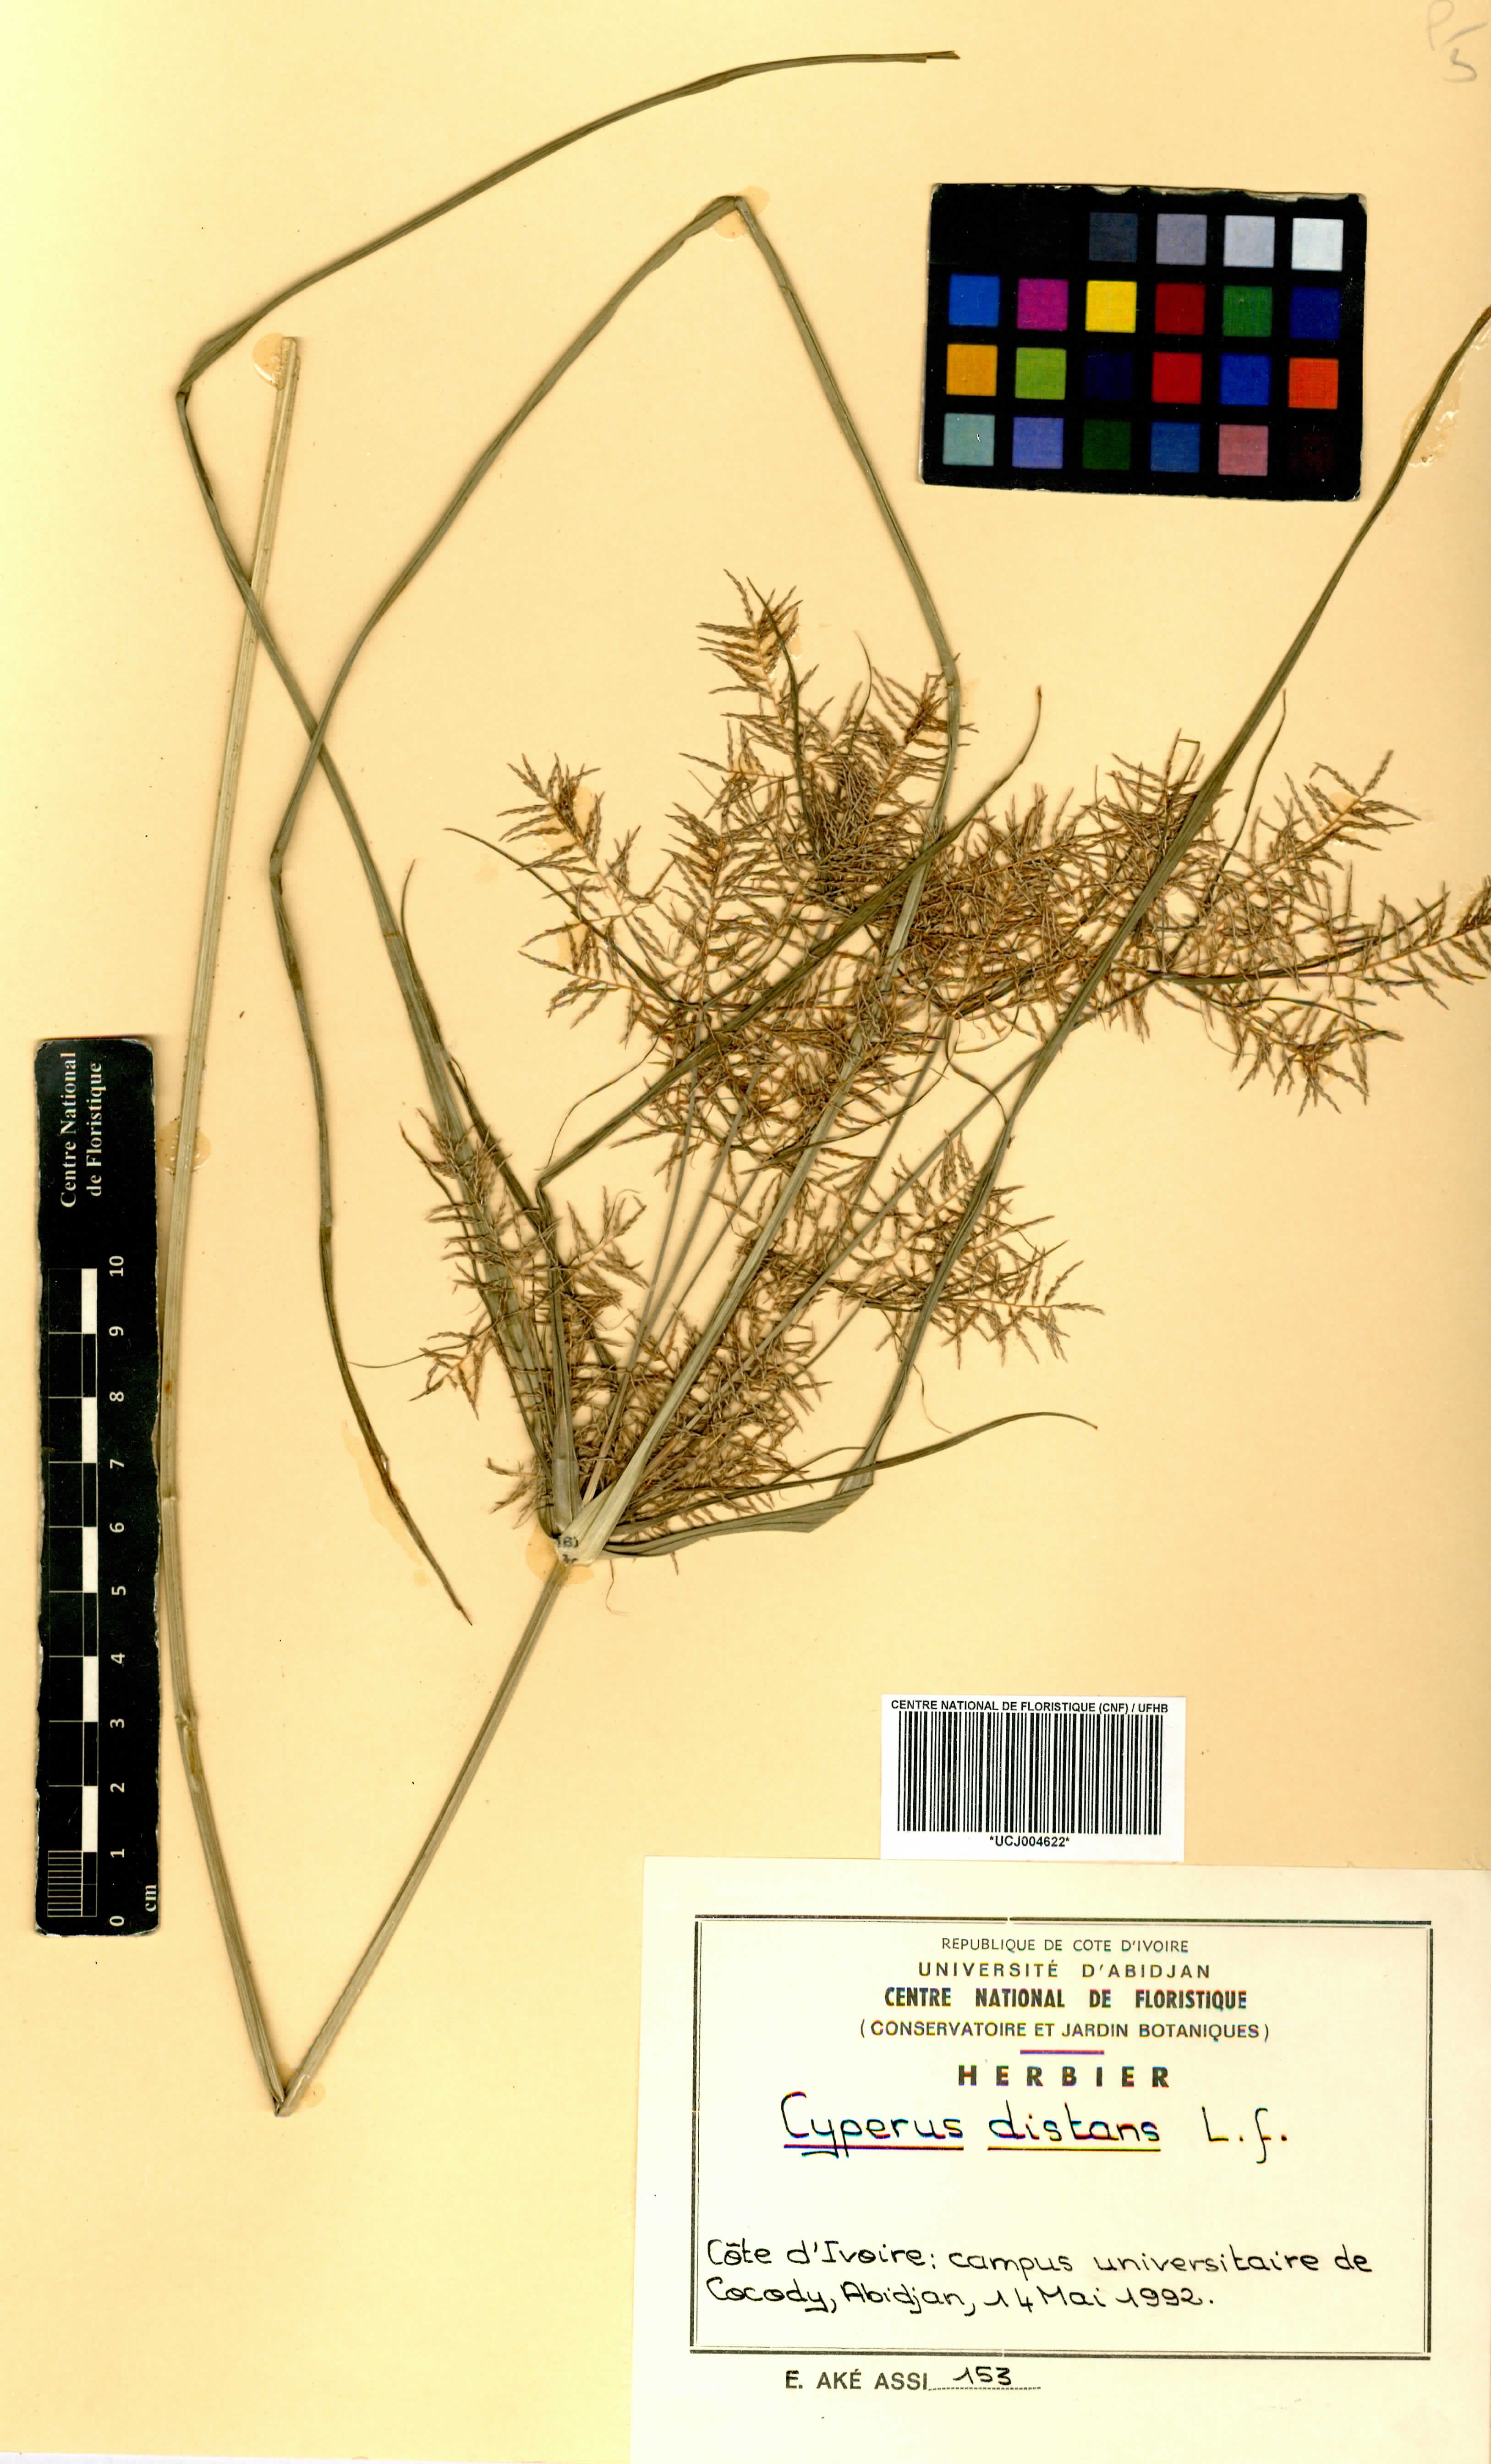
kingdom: Plantae
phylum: Tracheophyta
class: Liliopsida
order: Poales
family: Cyperaceae
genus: Cyperus
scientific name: Cyperus distans
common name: Slender cyperus
